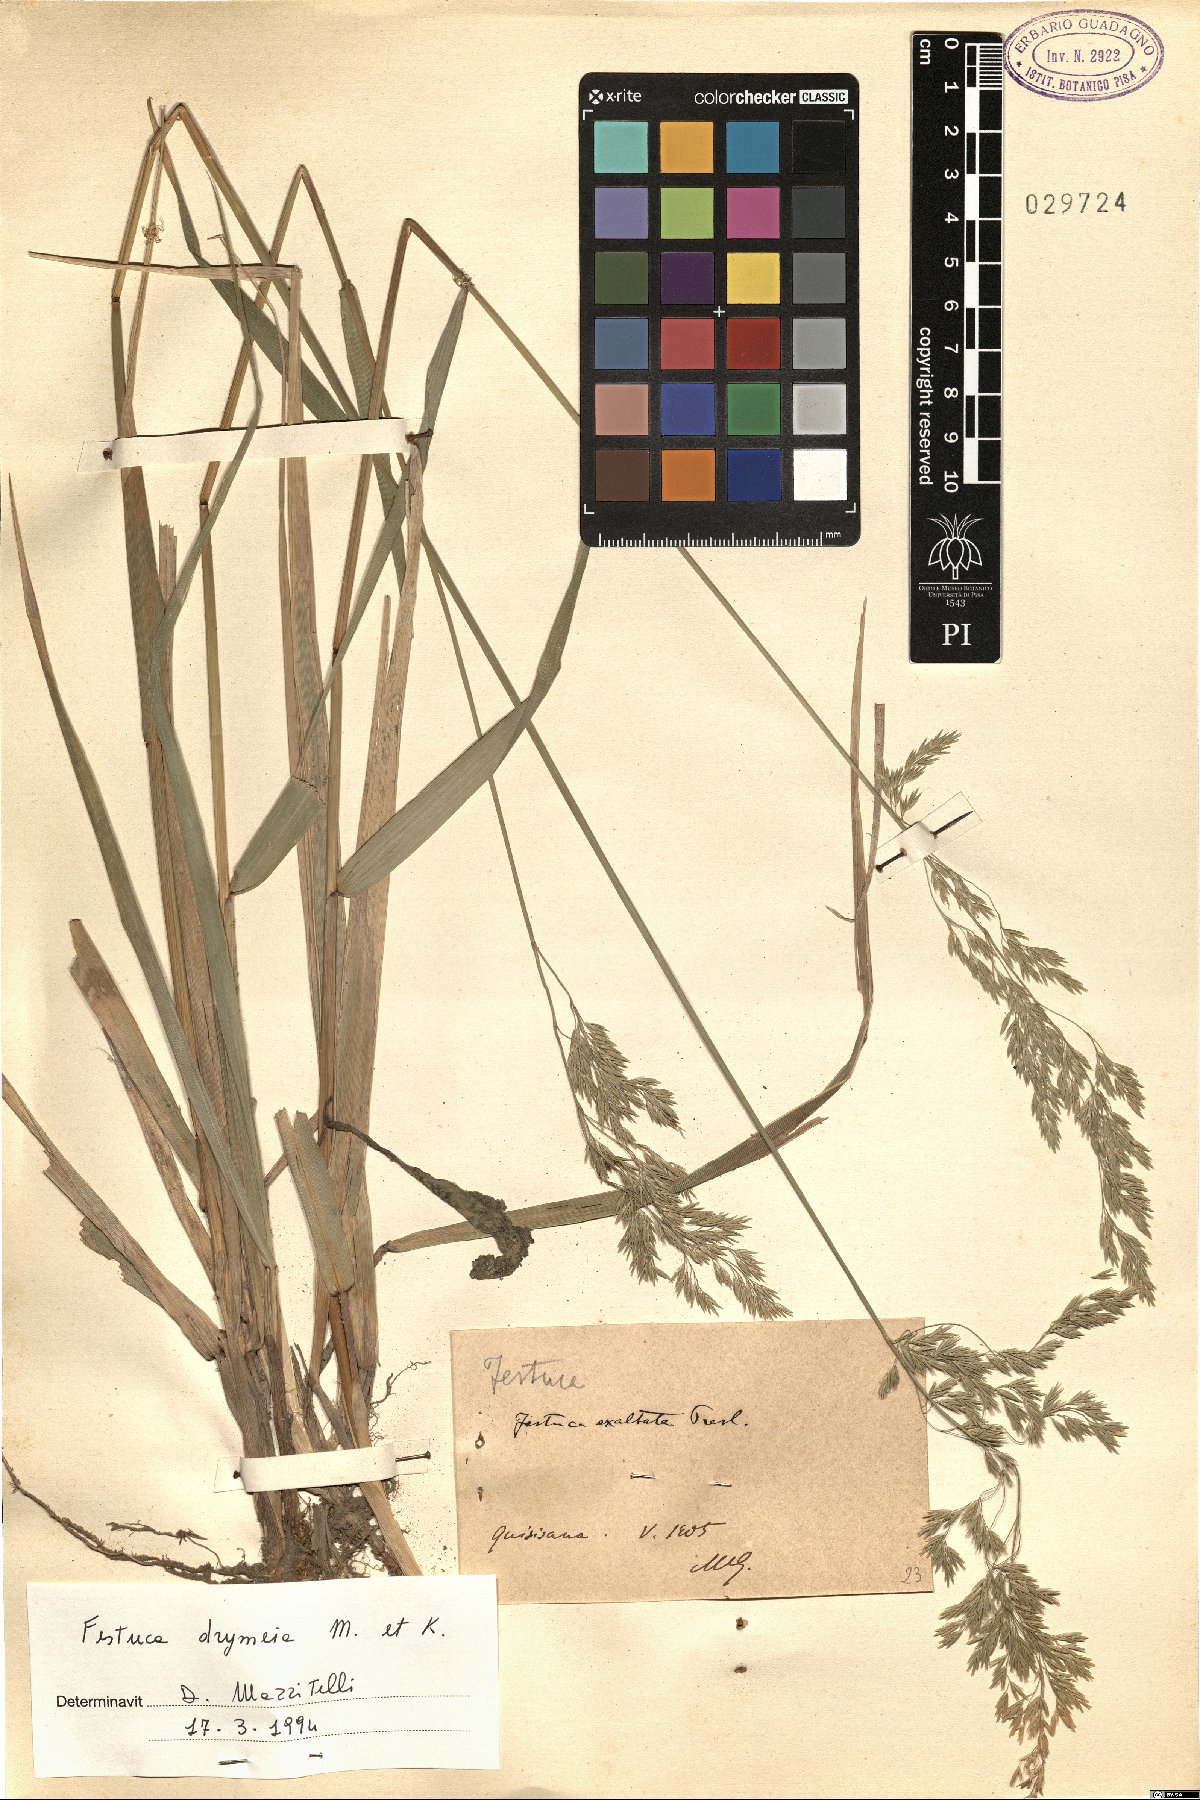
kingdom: Plantae
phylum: Tracheophyta
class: Liliopsida
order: Poales
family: Poaceae
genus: Festuca
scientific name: Festuca drymeja
